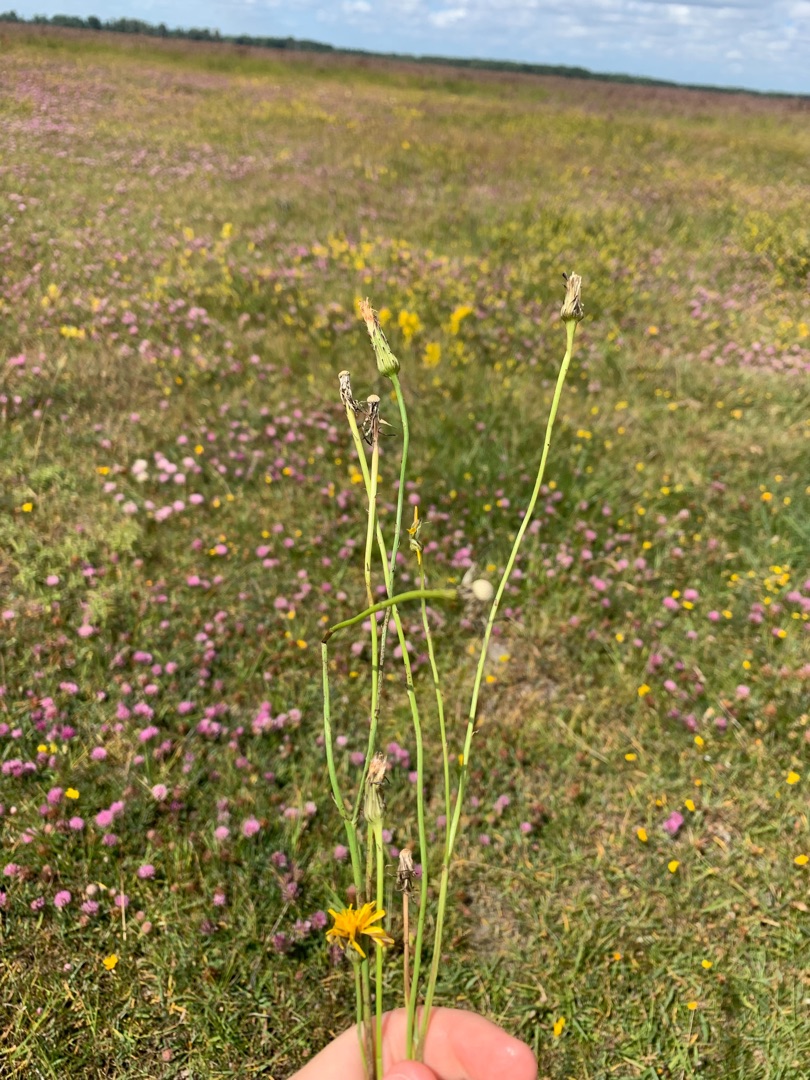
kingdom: Plantae
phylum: Tracheophyta
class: Magnoliopsida
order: Asterales
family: Asteraceae
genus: Hypochaeris
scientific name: Hypochaeris radicata
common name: Almindelig kongepen
